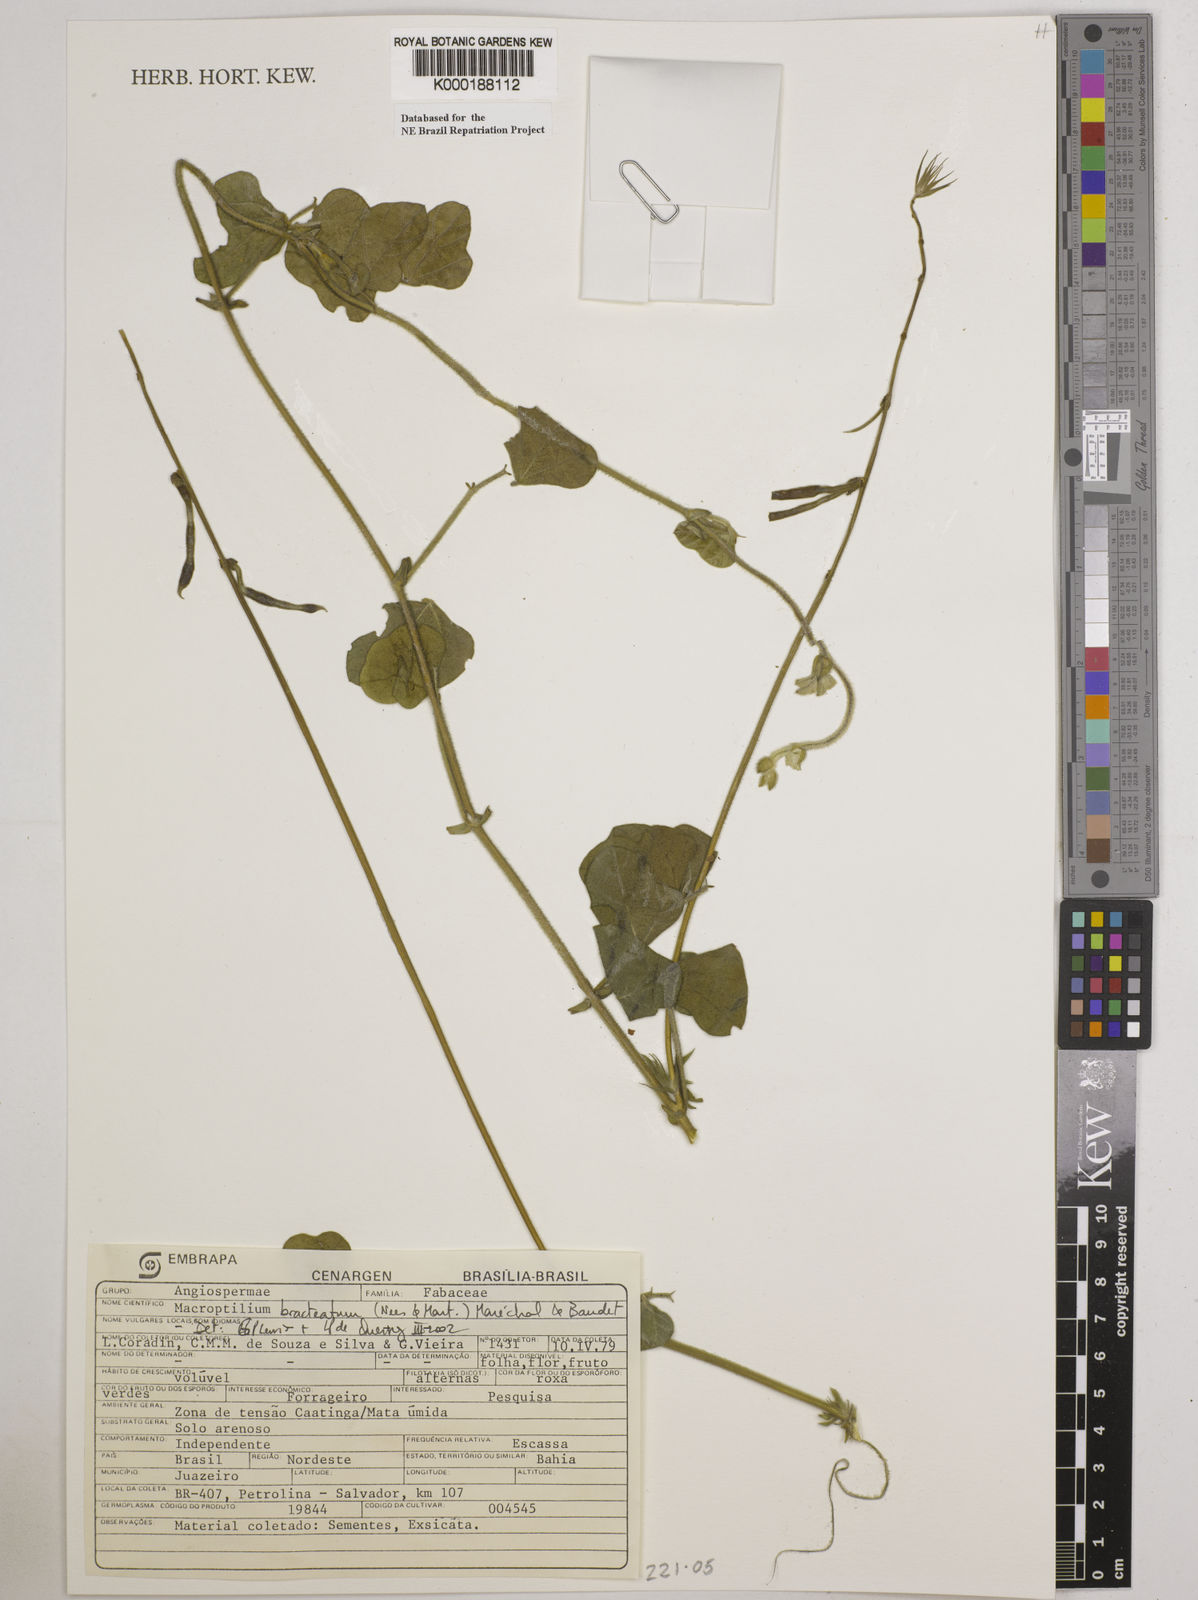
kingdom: Plantae
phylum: Tracheophyta
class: Magnoliopsida
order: Fabales
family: Fabaceae
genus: Macroptilium
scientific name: Macroptilium
